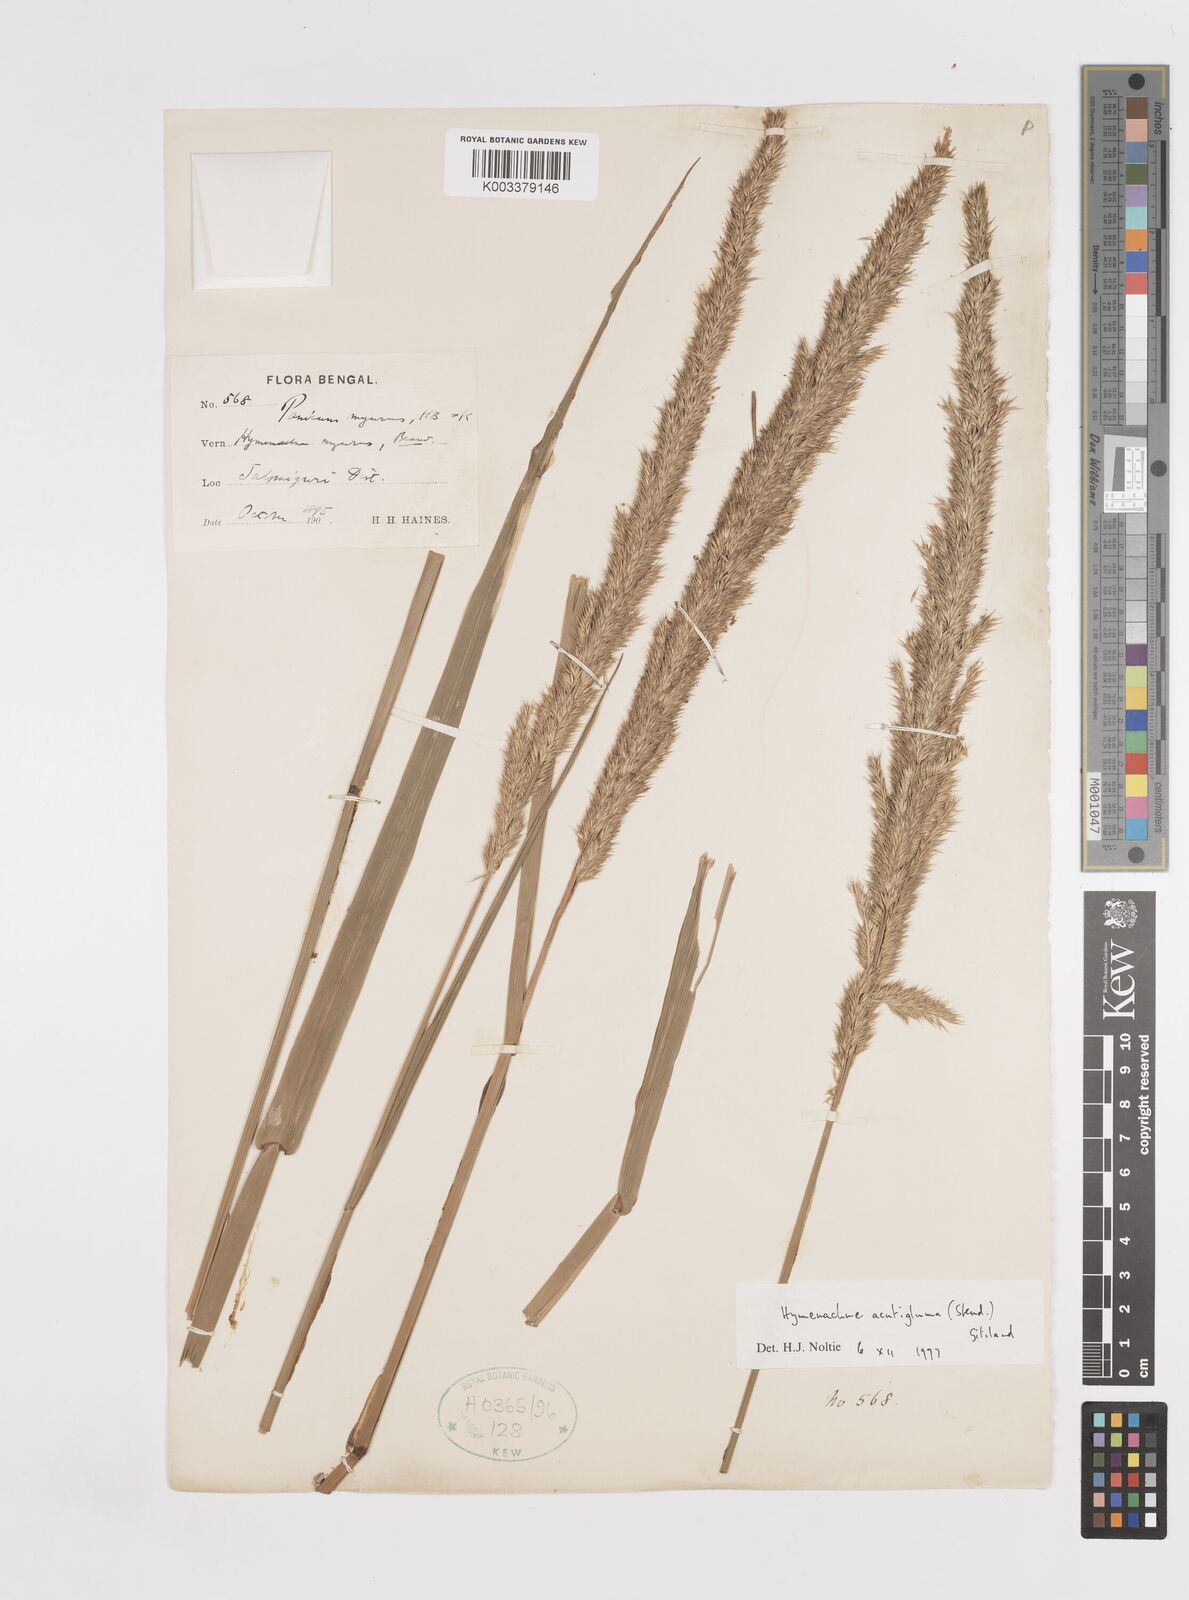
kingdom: Plantae
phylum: Tracheophyta
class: Liliopsida
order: Poales
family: Poaceae
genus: Hymenachne
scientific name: Hymenachne amplexicaulis
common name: Olive hymenachne
